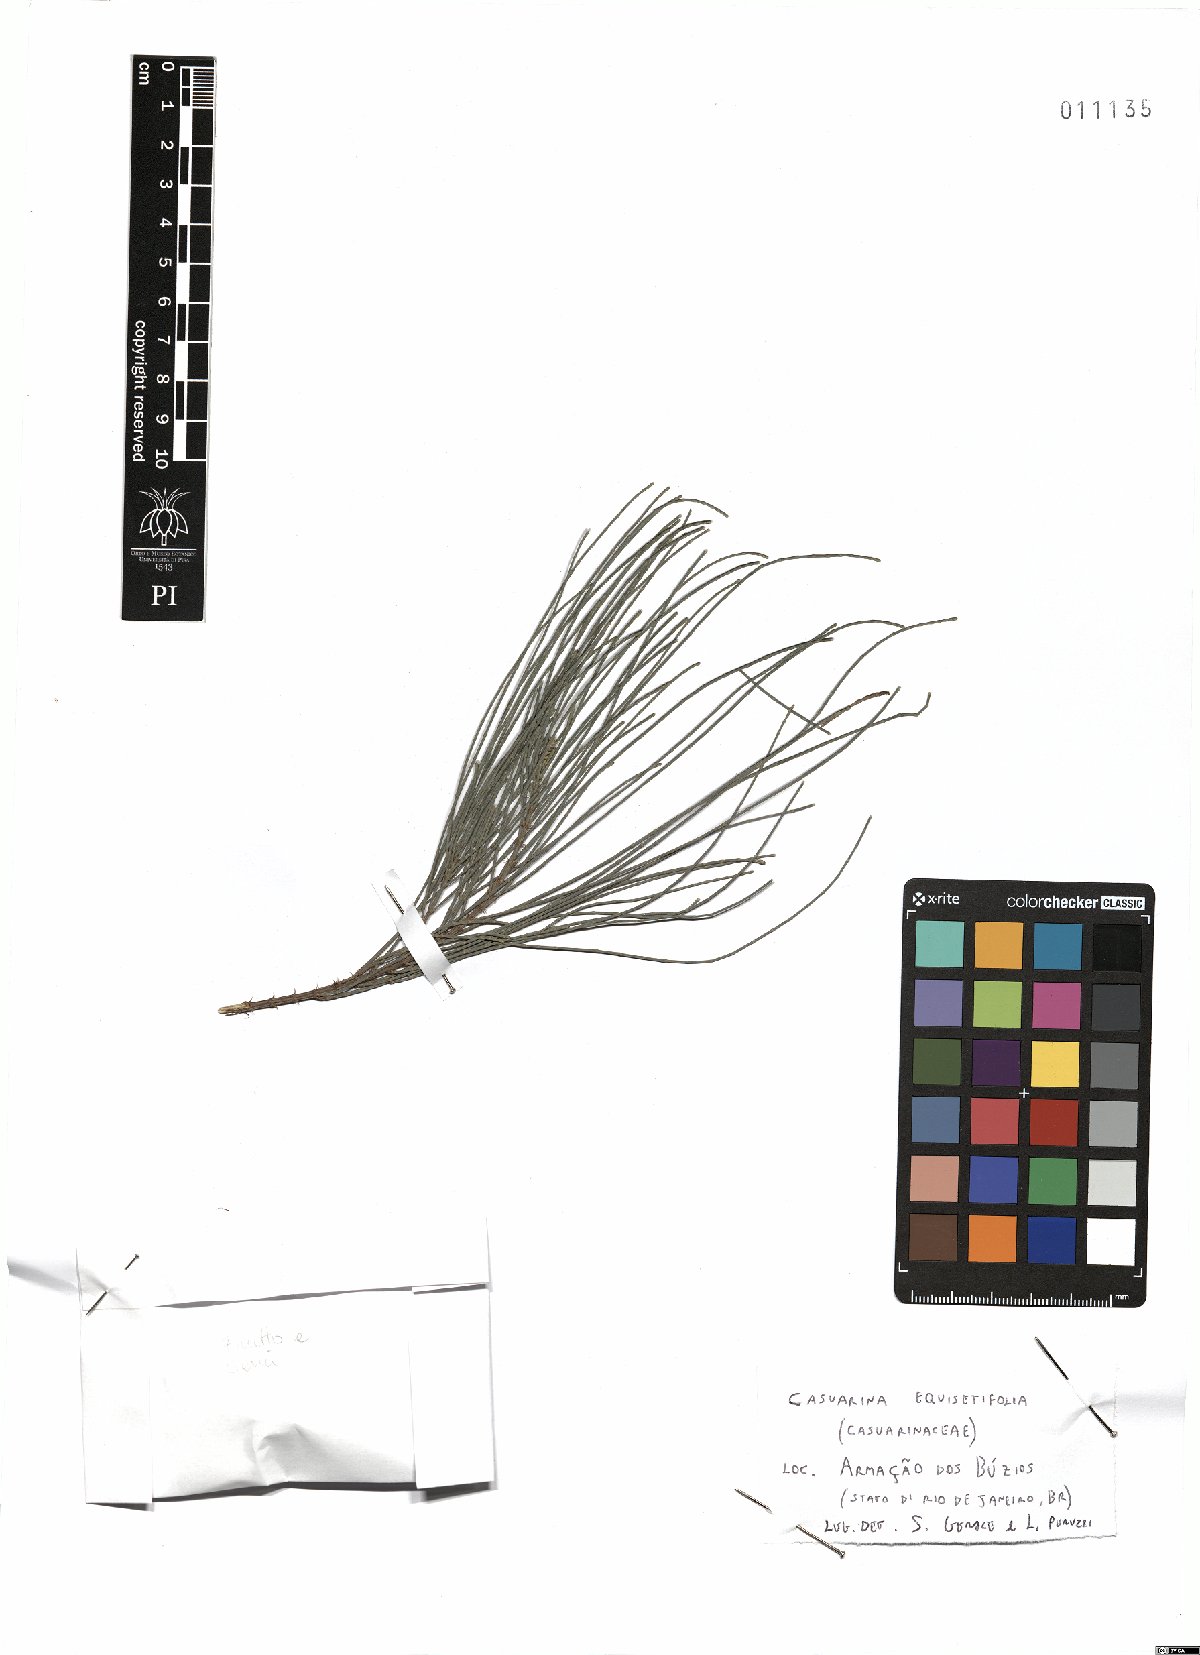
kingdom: Plantae
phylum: Tracheophyta
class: Magnoliopsida
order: Fagales
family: Casuarinaceae
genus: Casuarina
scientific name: Casuarina equisetifolia
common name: Beach sheoak
